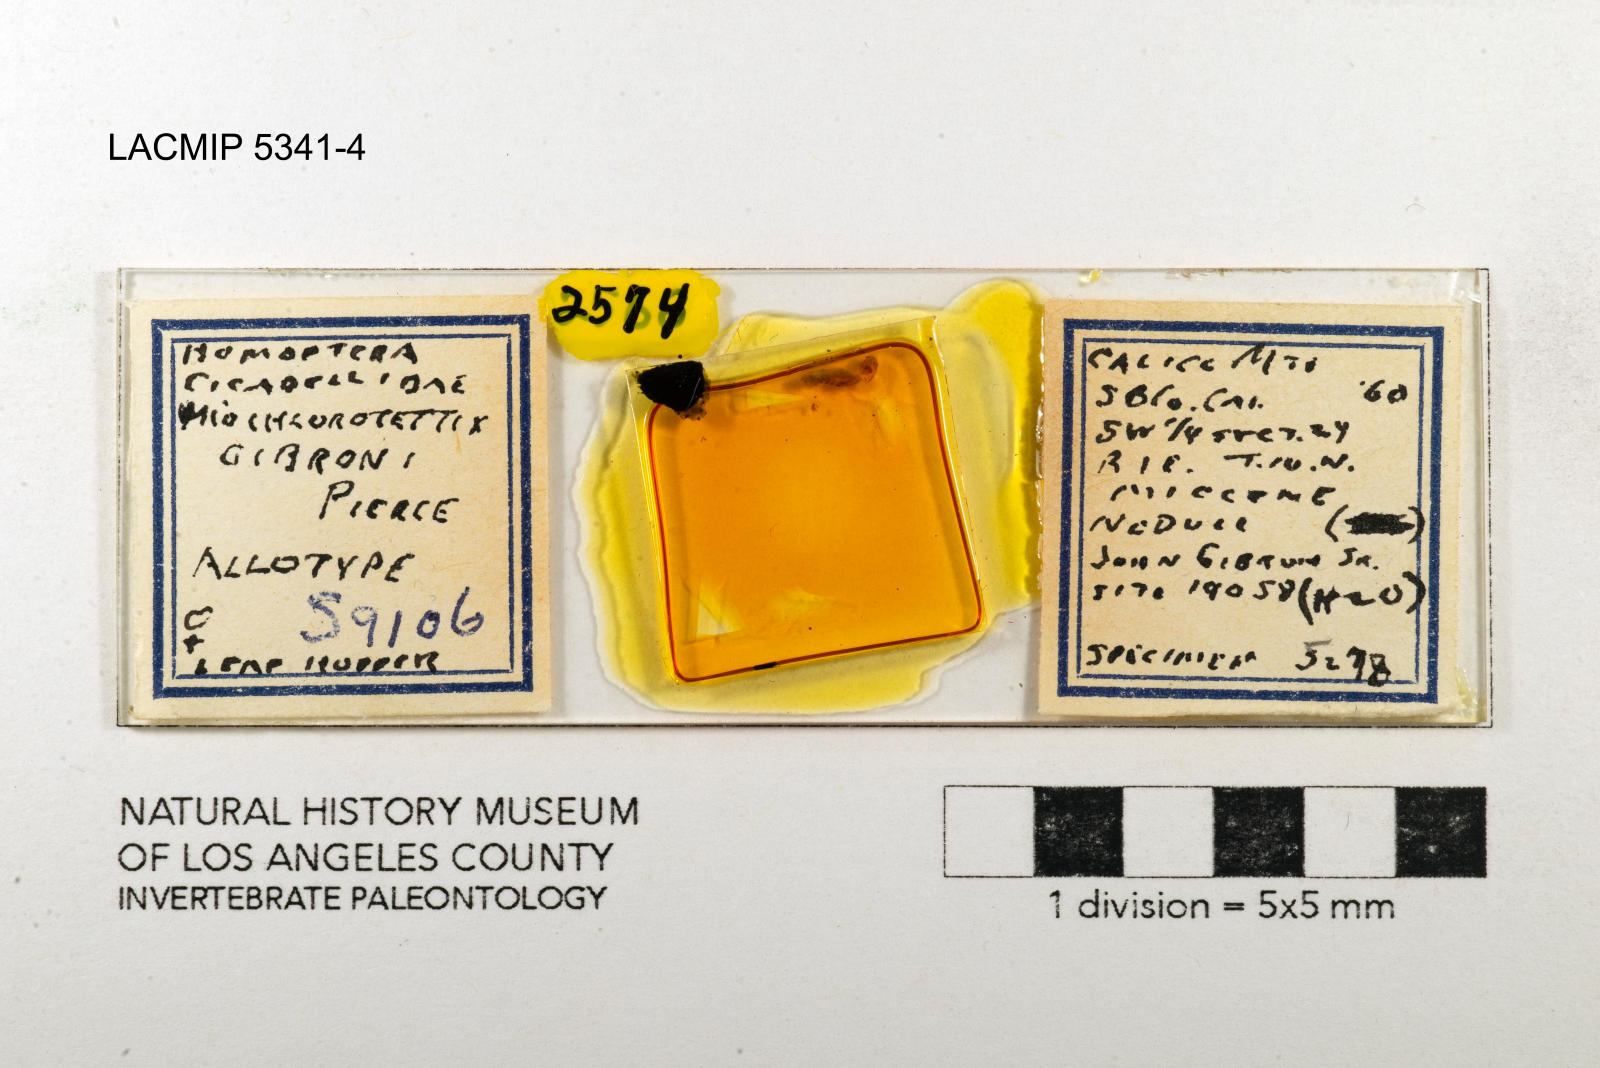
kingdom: Animalia
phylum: Arthropoda
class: Insecta
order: Hemiptera
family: Cicadellidae
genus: Miochlorotettix
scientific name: Miochlorotettix gibroni
